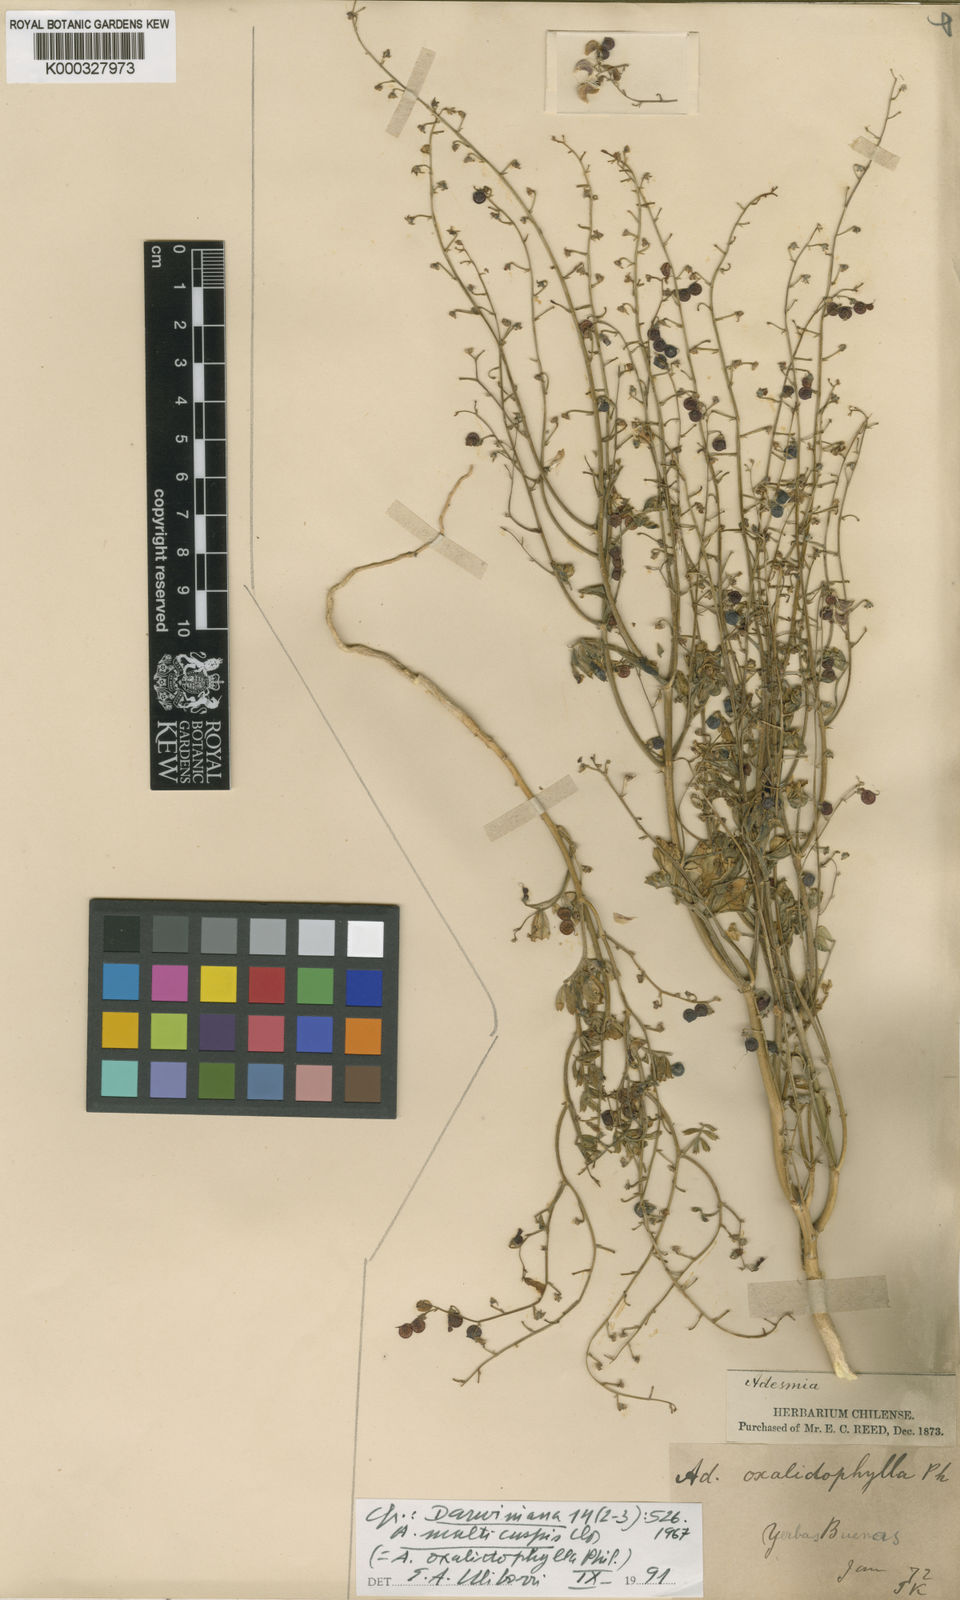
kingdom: Plantae
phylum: Tracheophyta
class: Magnoliopsida
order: Fabales
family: Fabaceae
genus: Adesmia
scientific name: Adesmia
